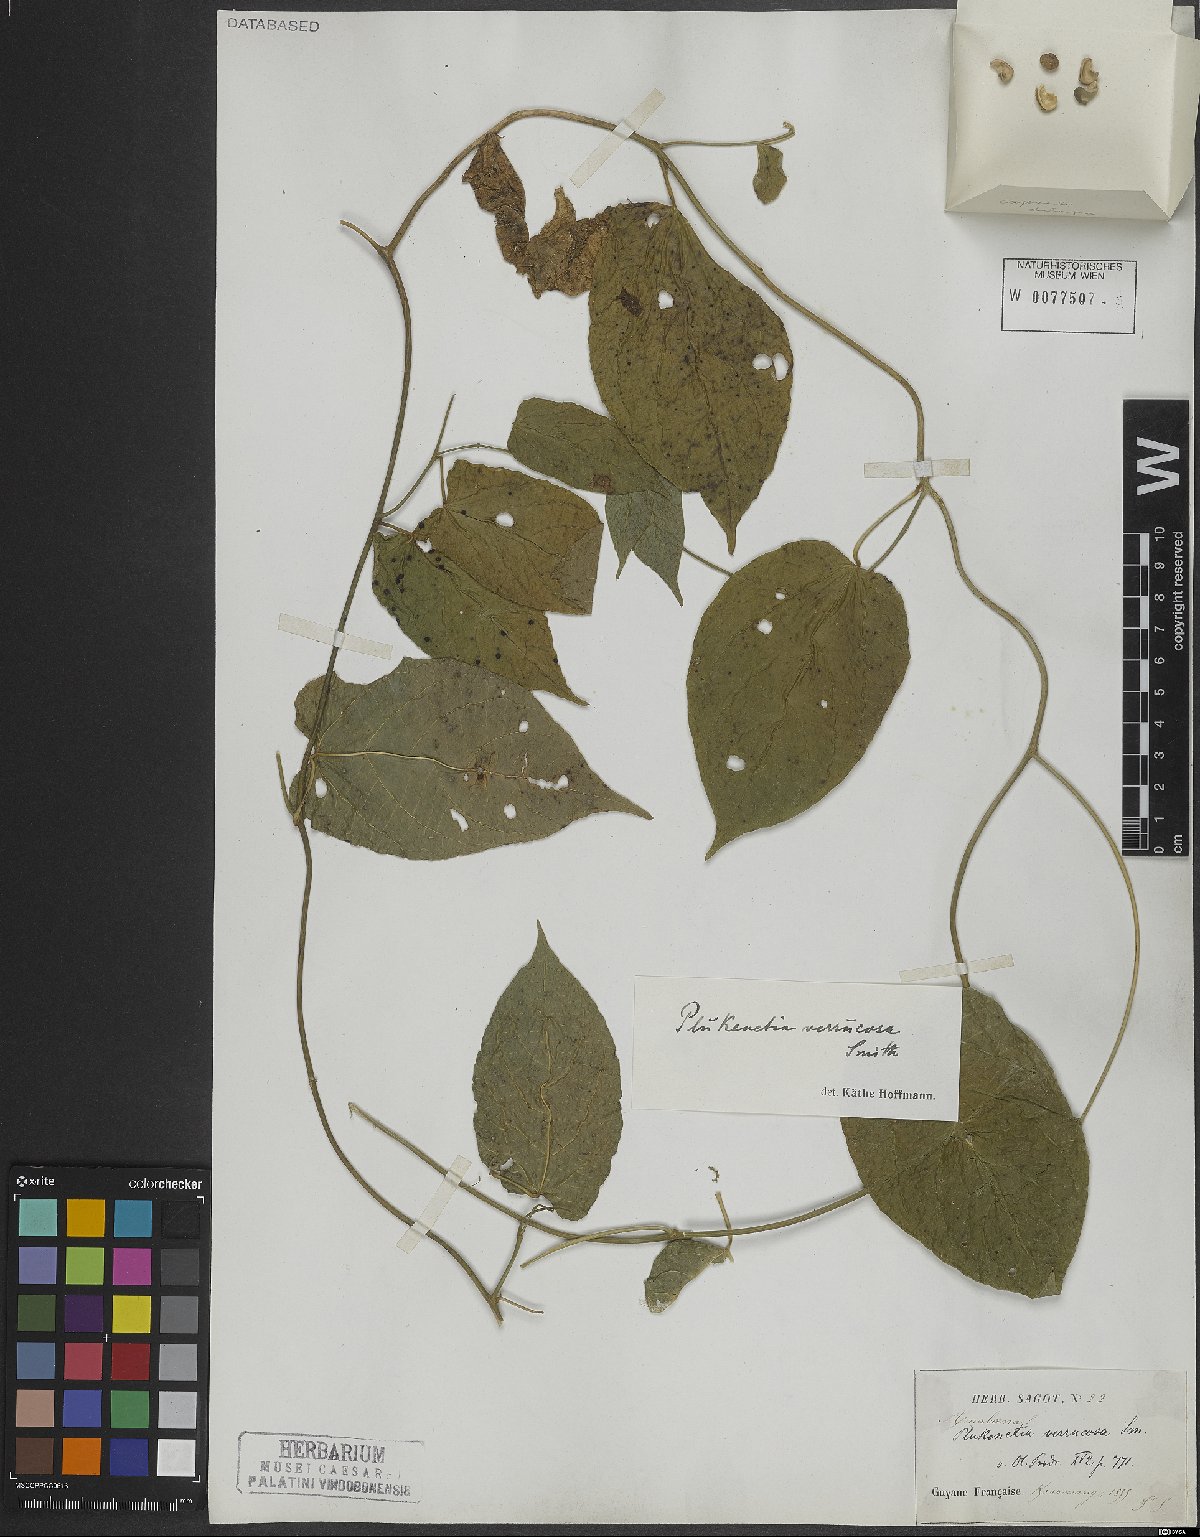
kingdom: Plantae
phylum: Tracheophyta
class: Magnoliopsida
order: Malpighiales
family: Euphorbiaceae
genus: Plukenetia
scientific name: Plukenetia verrucosa
